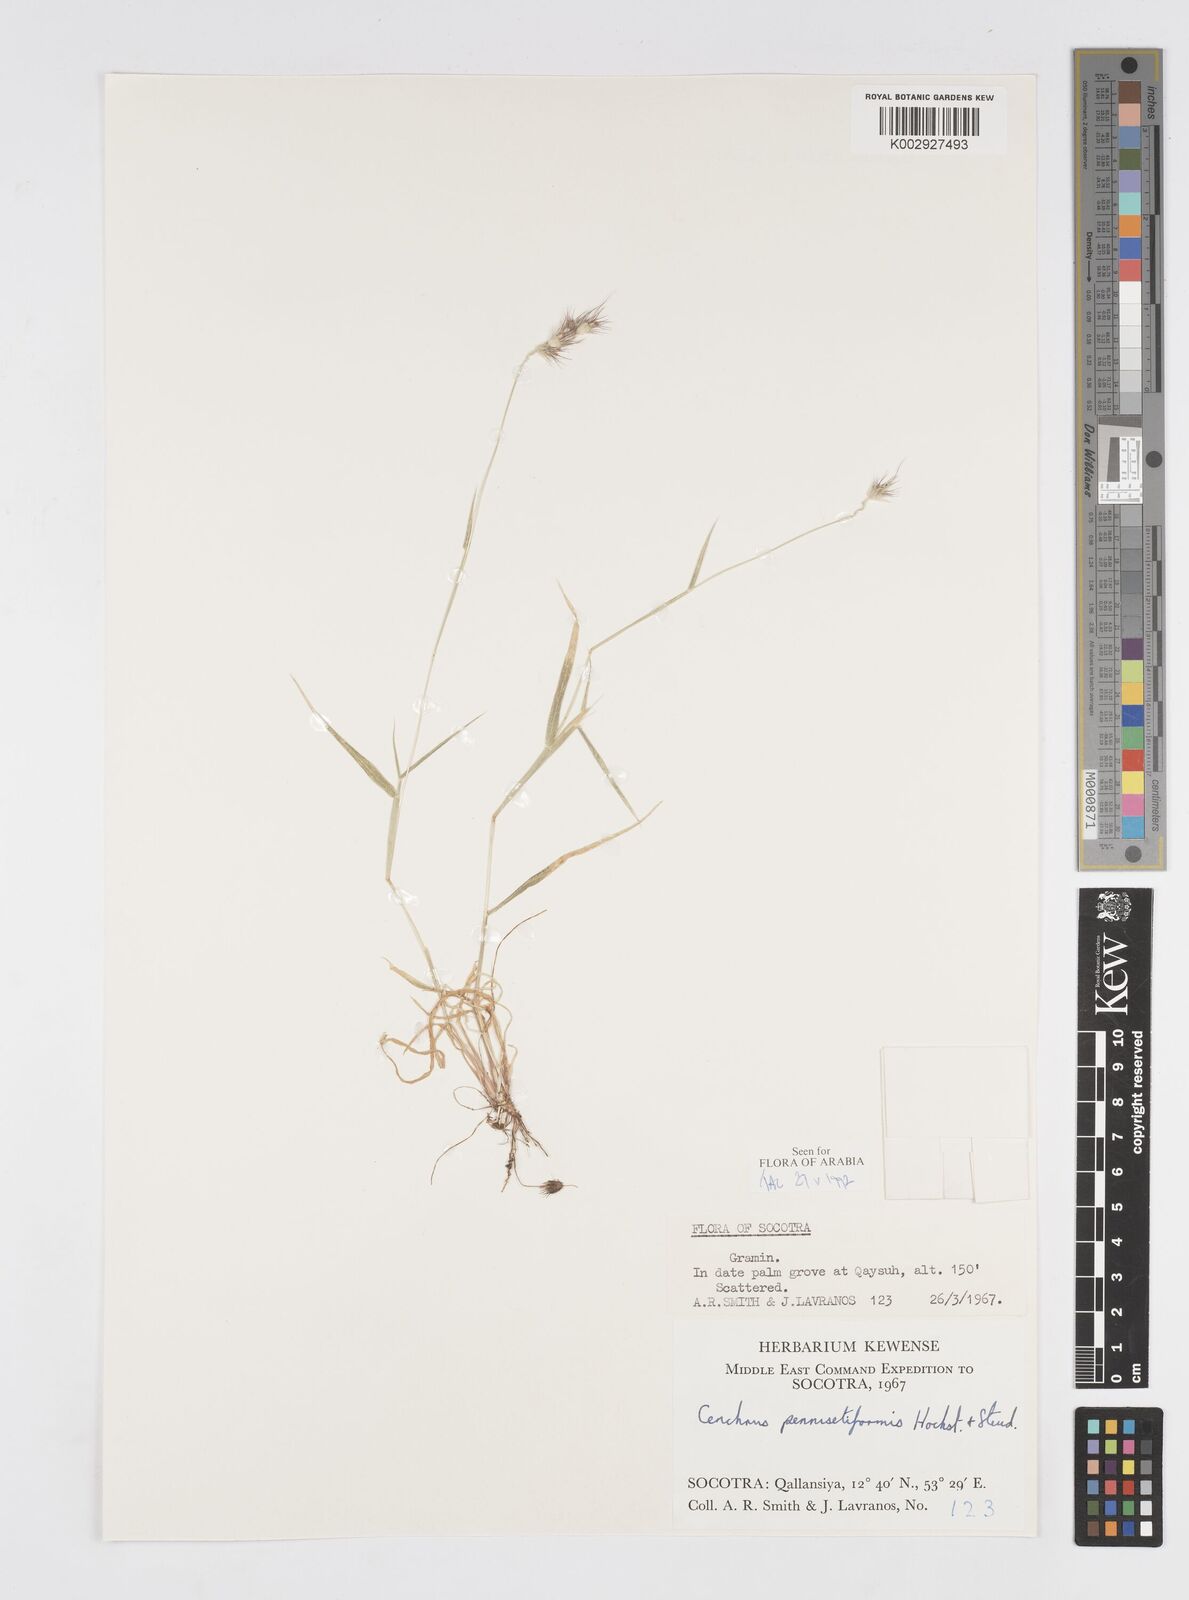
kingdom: Plantae
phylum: Tracheophyta
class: Liliopsida
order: Poales
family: Poaceae
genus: Cenchrus
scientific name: Cenchrus pennisetiformis
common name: Cloncurry
